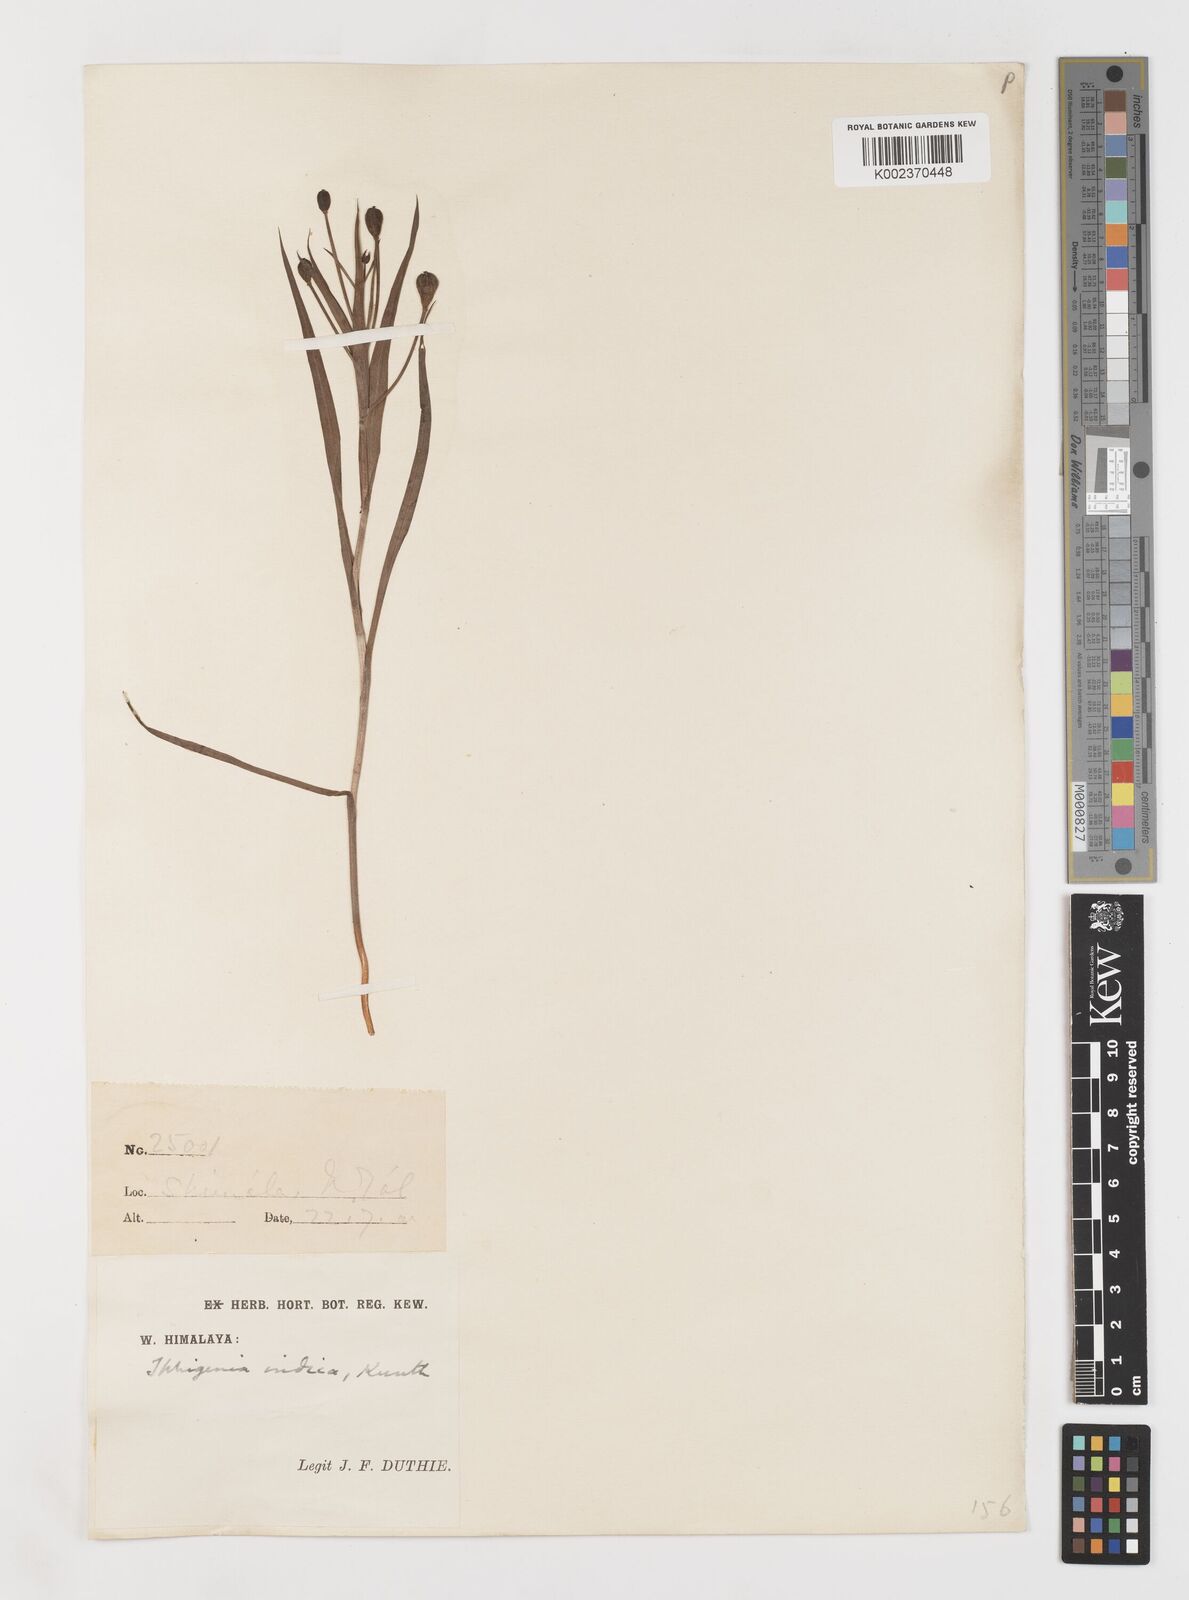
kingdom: Plantae
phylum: Tracheophyta
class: Liliopsida
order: Liliales
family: Colchicaceae
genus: Iphigenia
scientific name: Iphigenia indica
